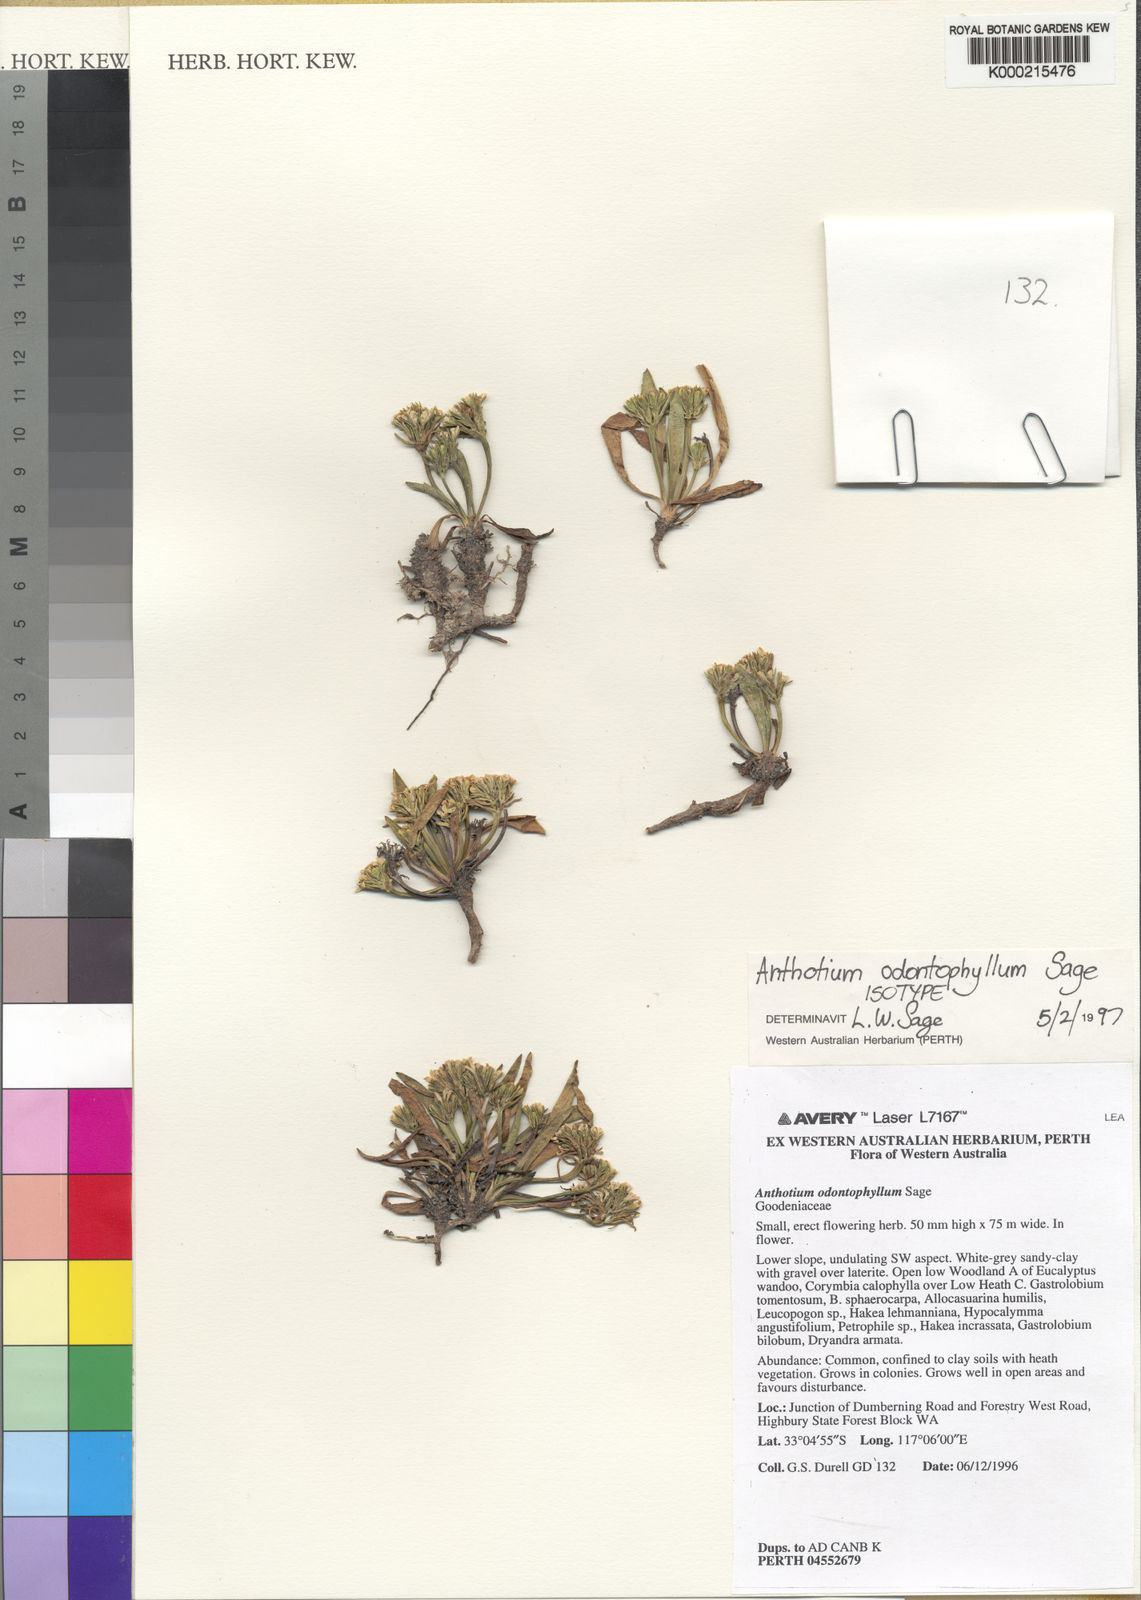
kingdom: Plantae
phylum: Tracheophyta
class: Magnoliopsida
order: Asterales
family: Goodeniaceae
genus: Anthotium
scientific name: Anthotium rubriflorum
